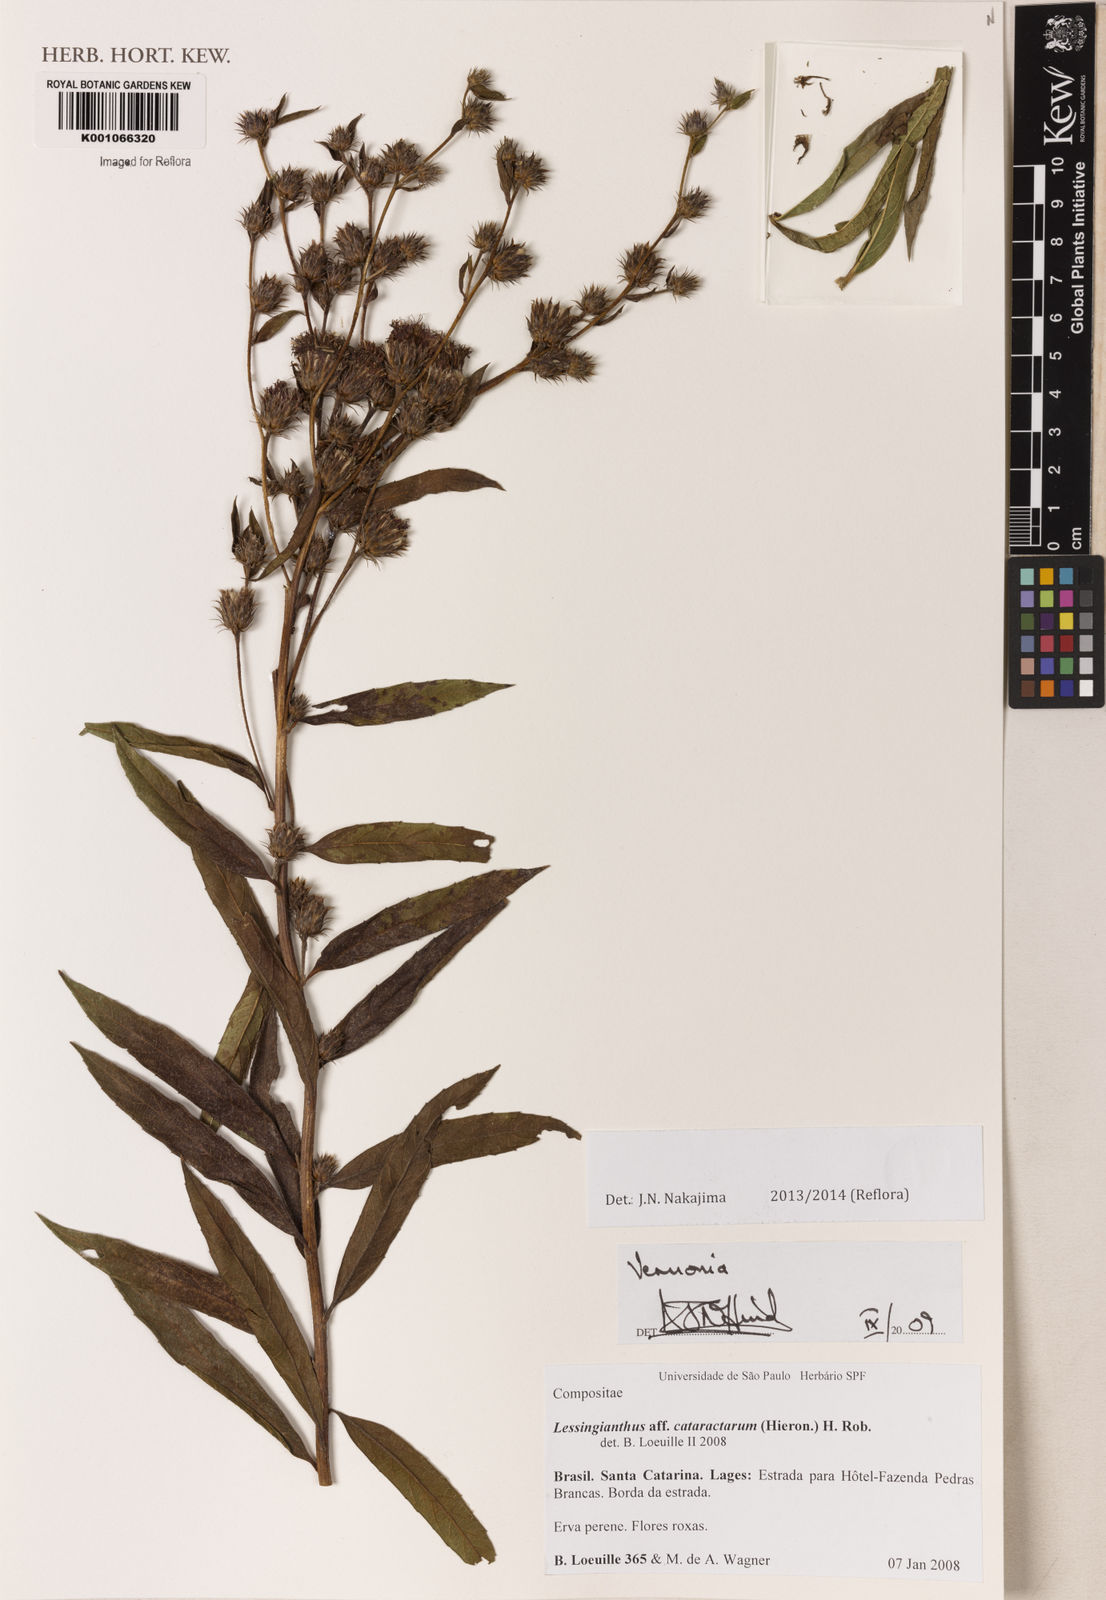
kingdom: Plantae
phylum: Tracheophyta
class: Magnoliopsida
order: Asterales
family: Asteraceae
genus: Lessingianthus
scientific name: Lessingianthus niederleinii
